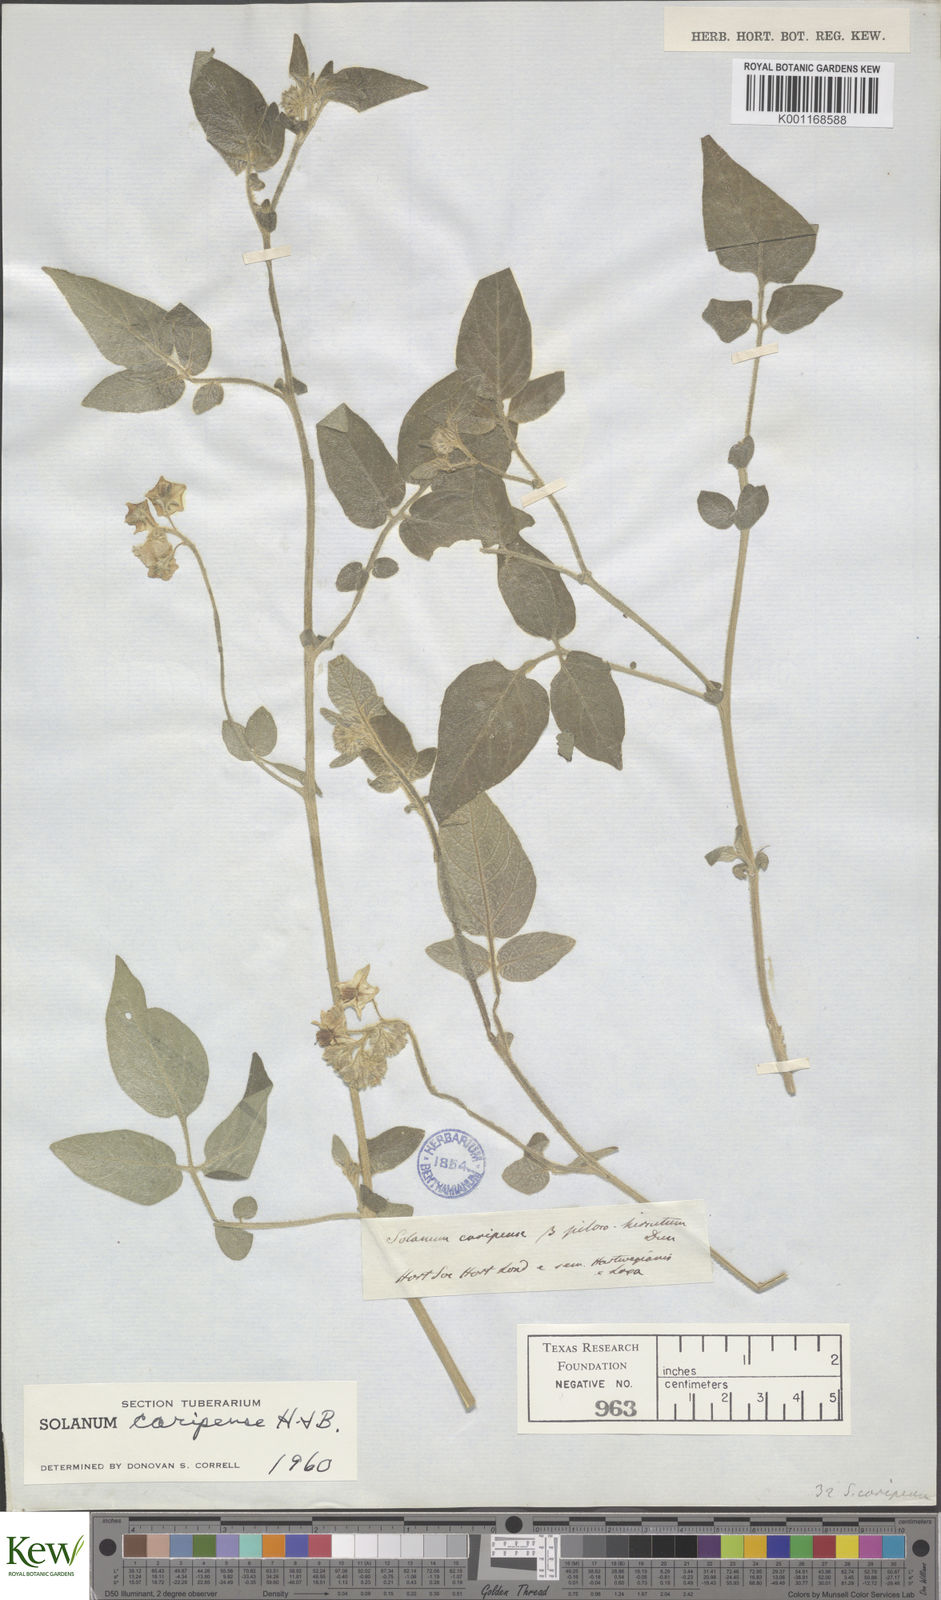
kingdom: Plantae
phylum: Tracheophyta
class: Magnoliopsida
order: Solanales
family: Solanaceae
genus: Solanum
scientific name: Solanum caripense
